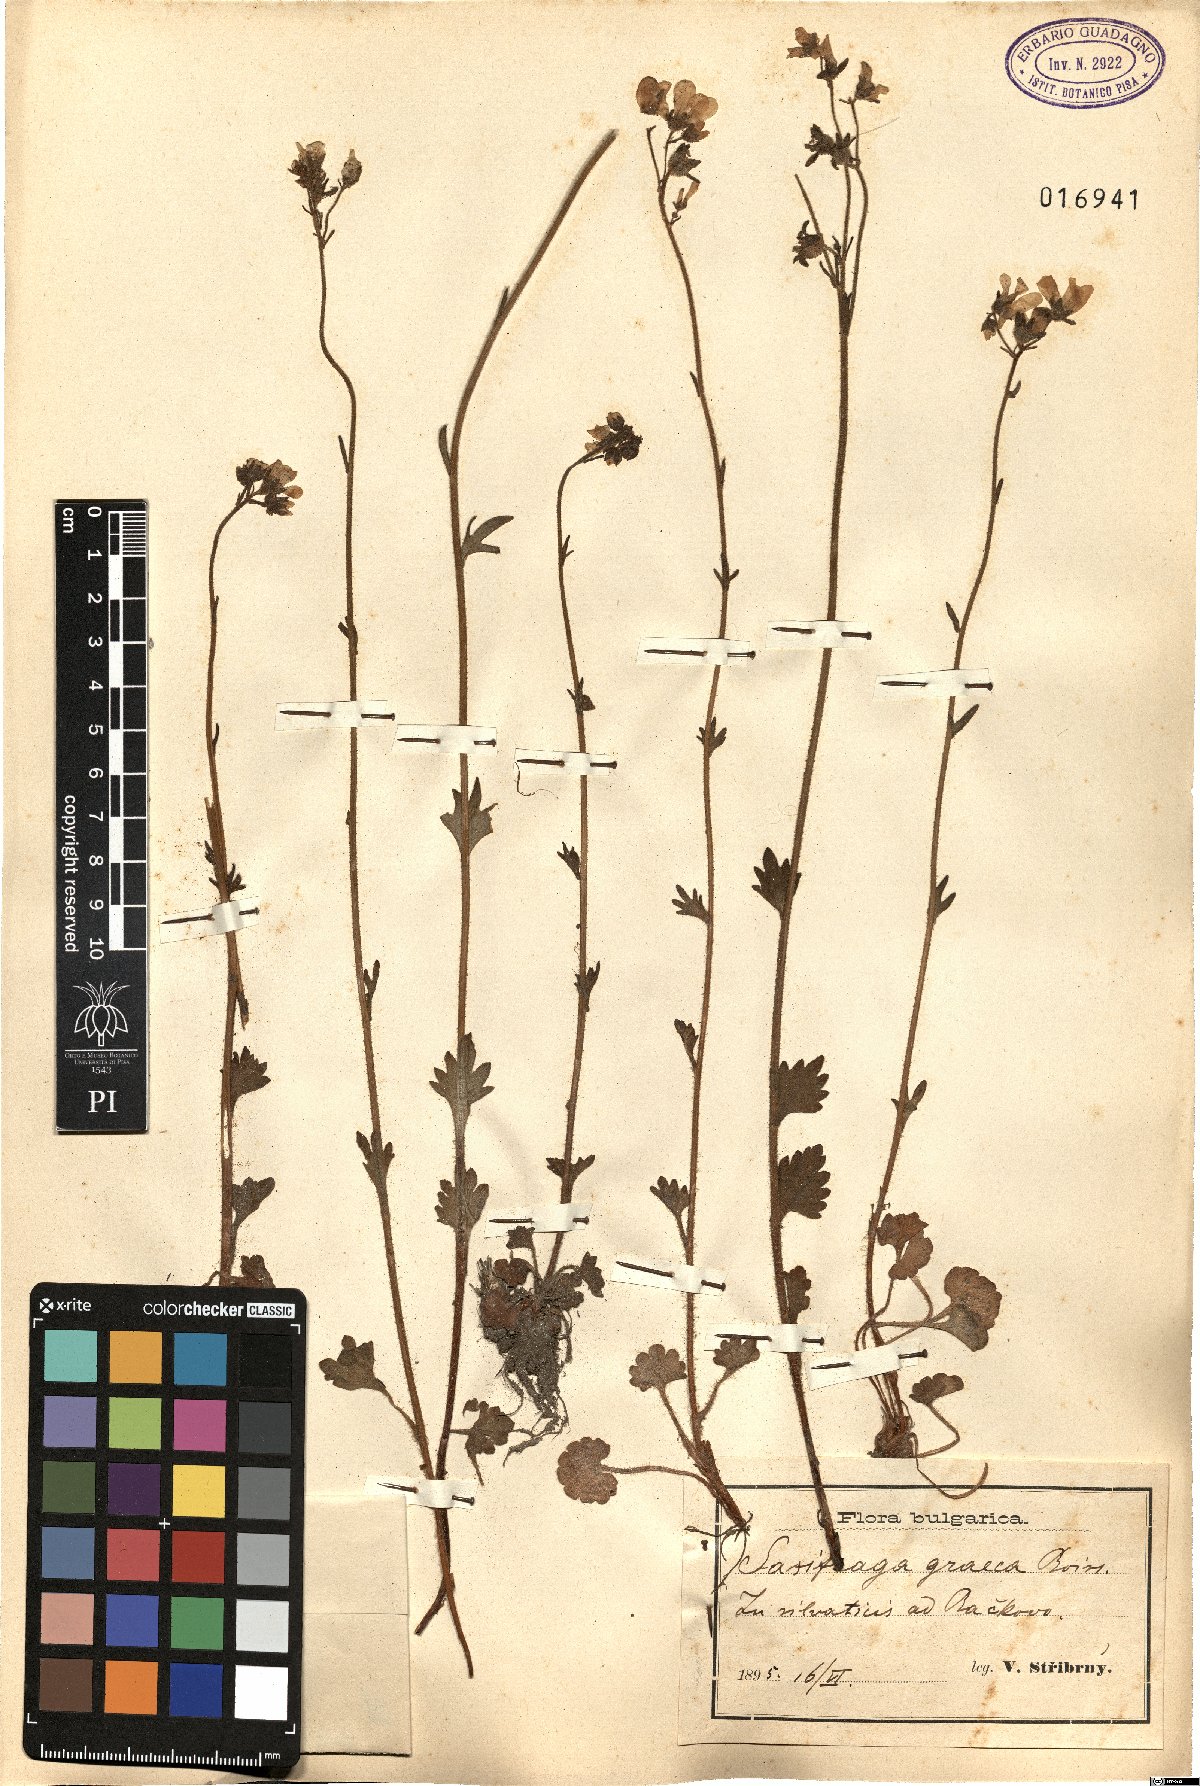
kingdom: Plantae
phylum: Tracheophyta
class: Magnoliopsida
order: Saxifragales
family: Saxifragaceae
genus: Saxifraga
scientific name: Saxifraga carpetana
